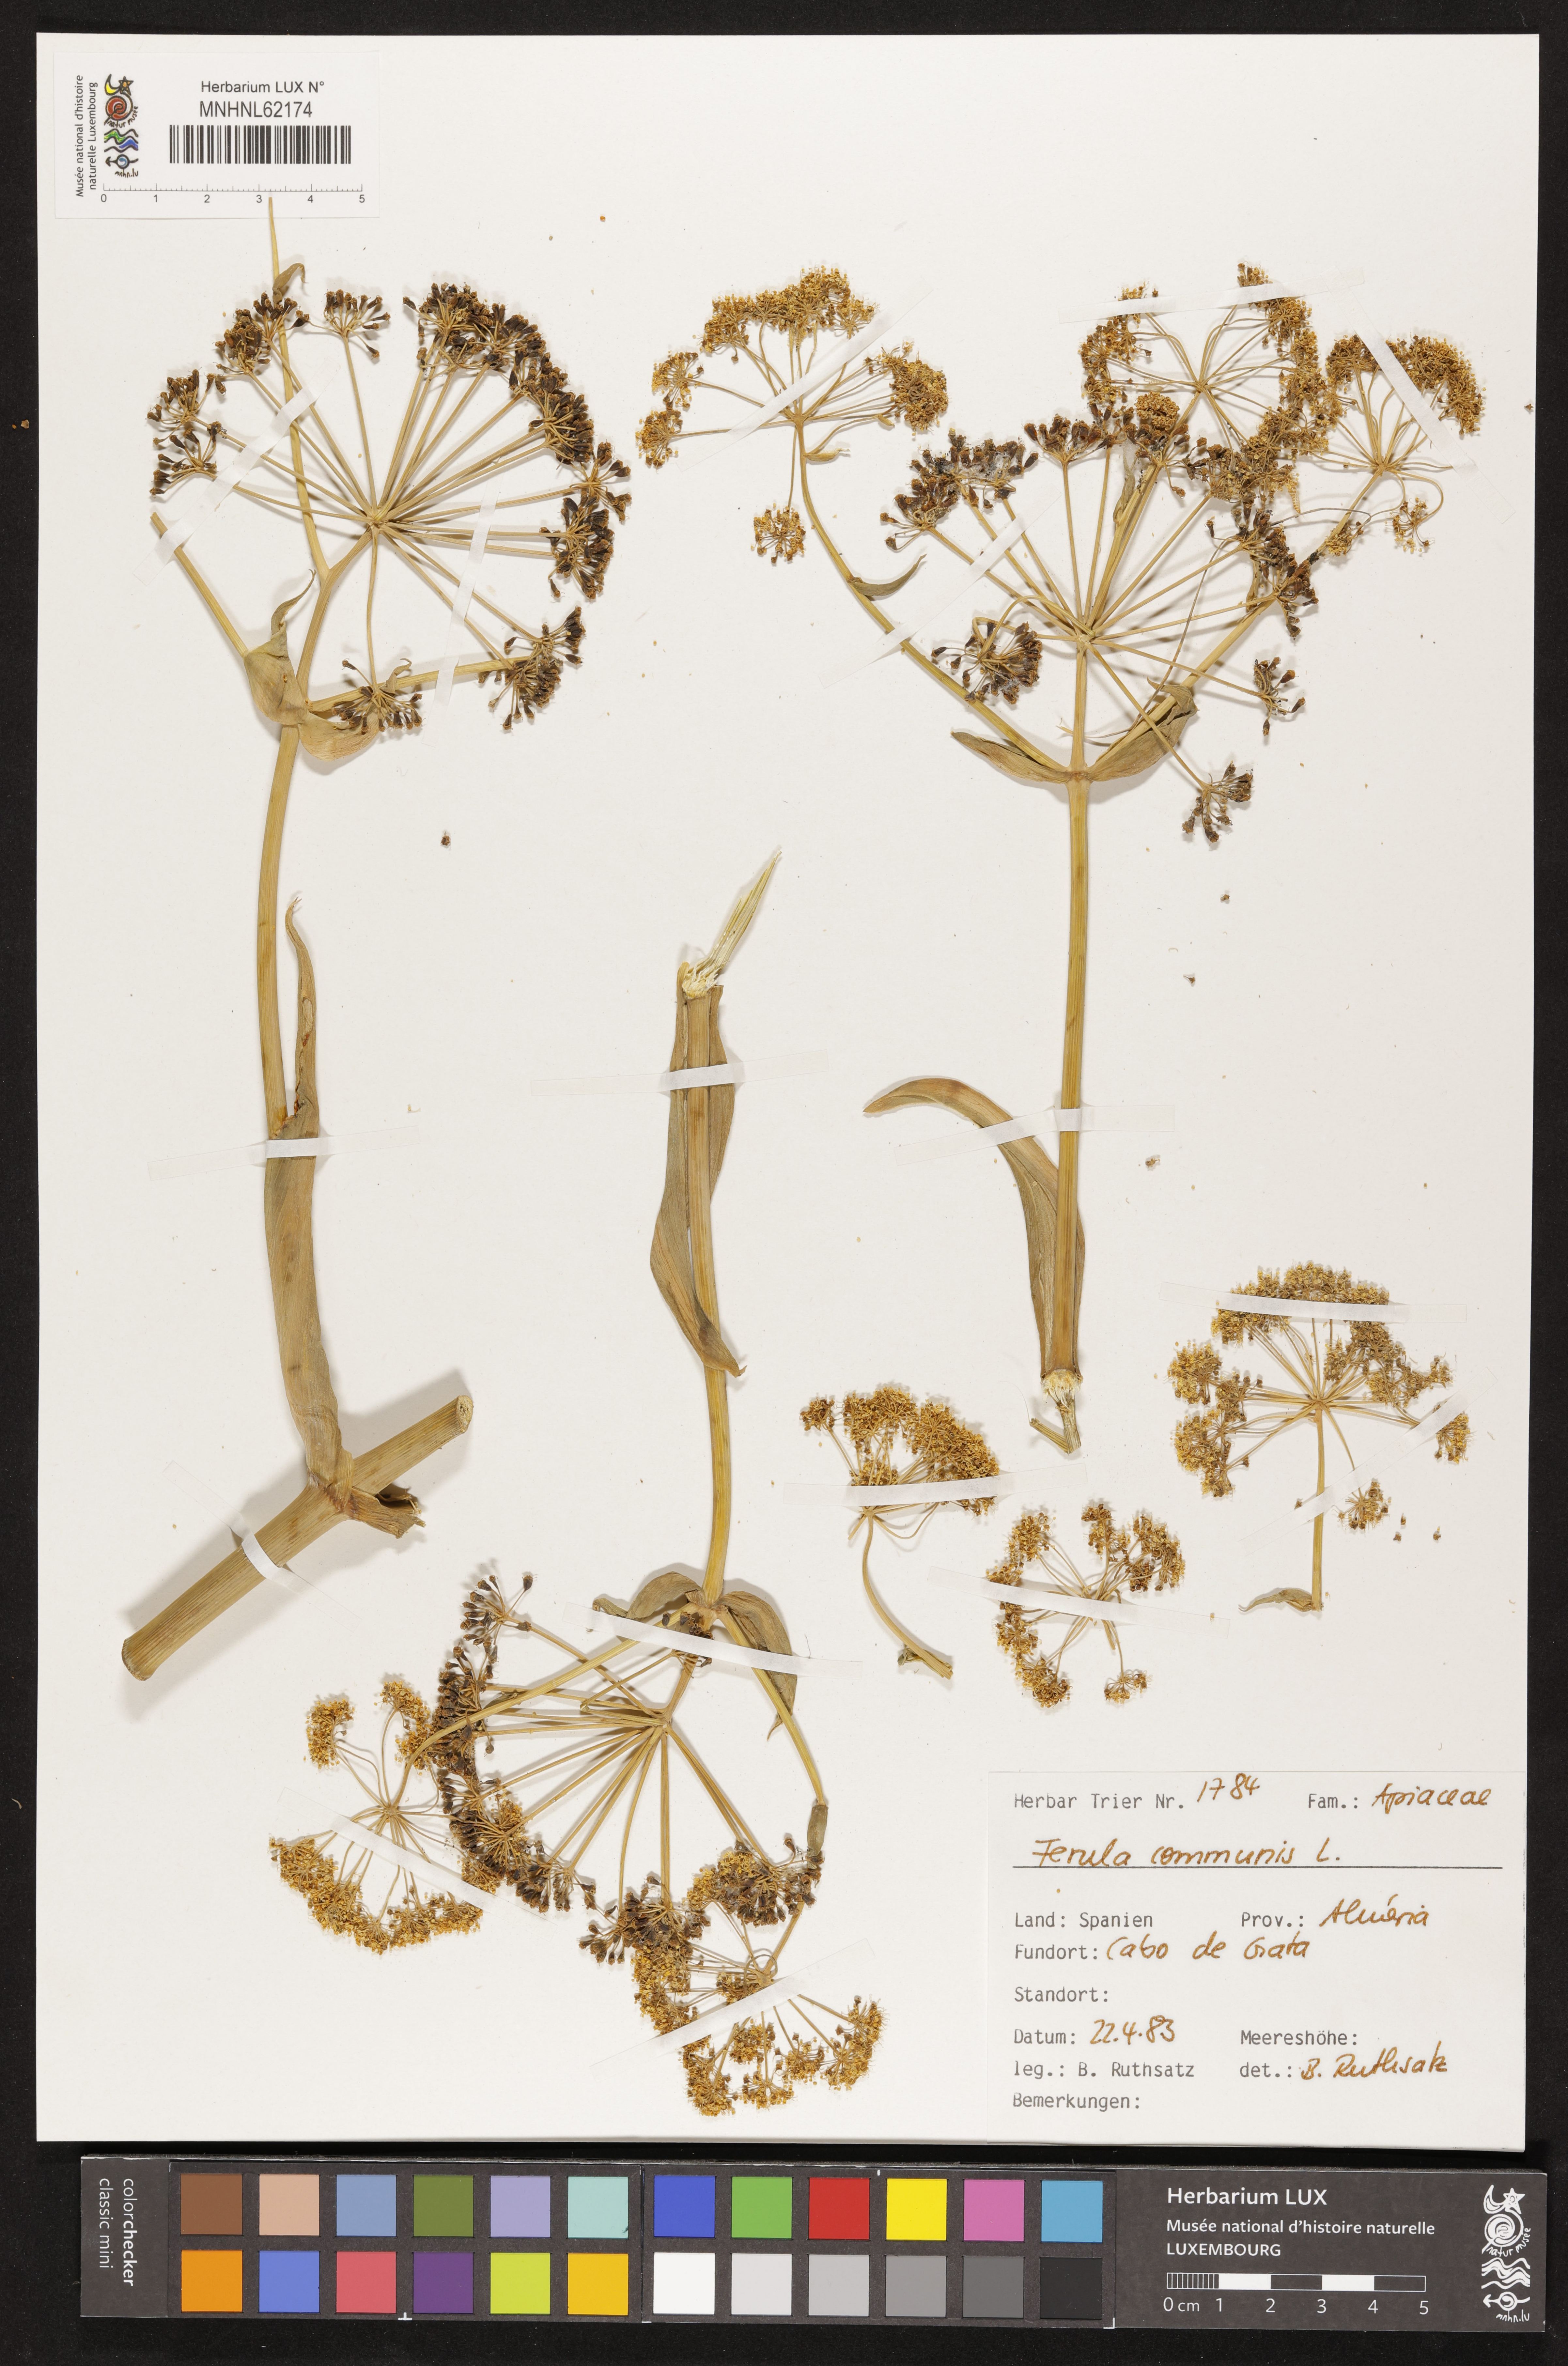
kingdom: Plantae
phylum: Tracheophyta
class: Magnoliopsida
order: Apiales
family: Apiaceae
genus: Ferula
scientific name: Ferula communis
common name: Giant fennel
